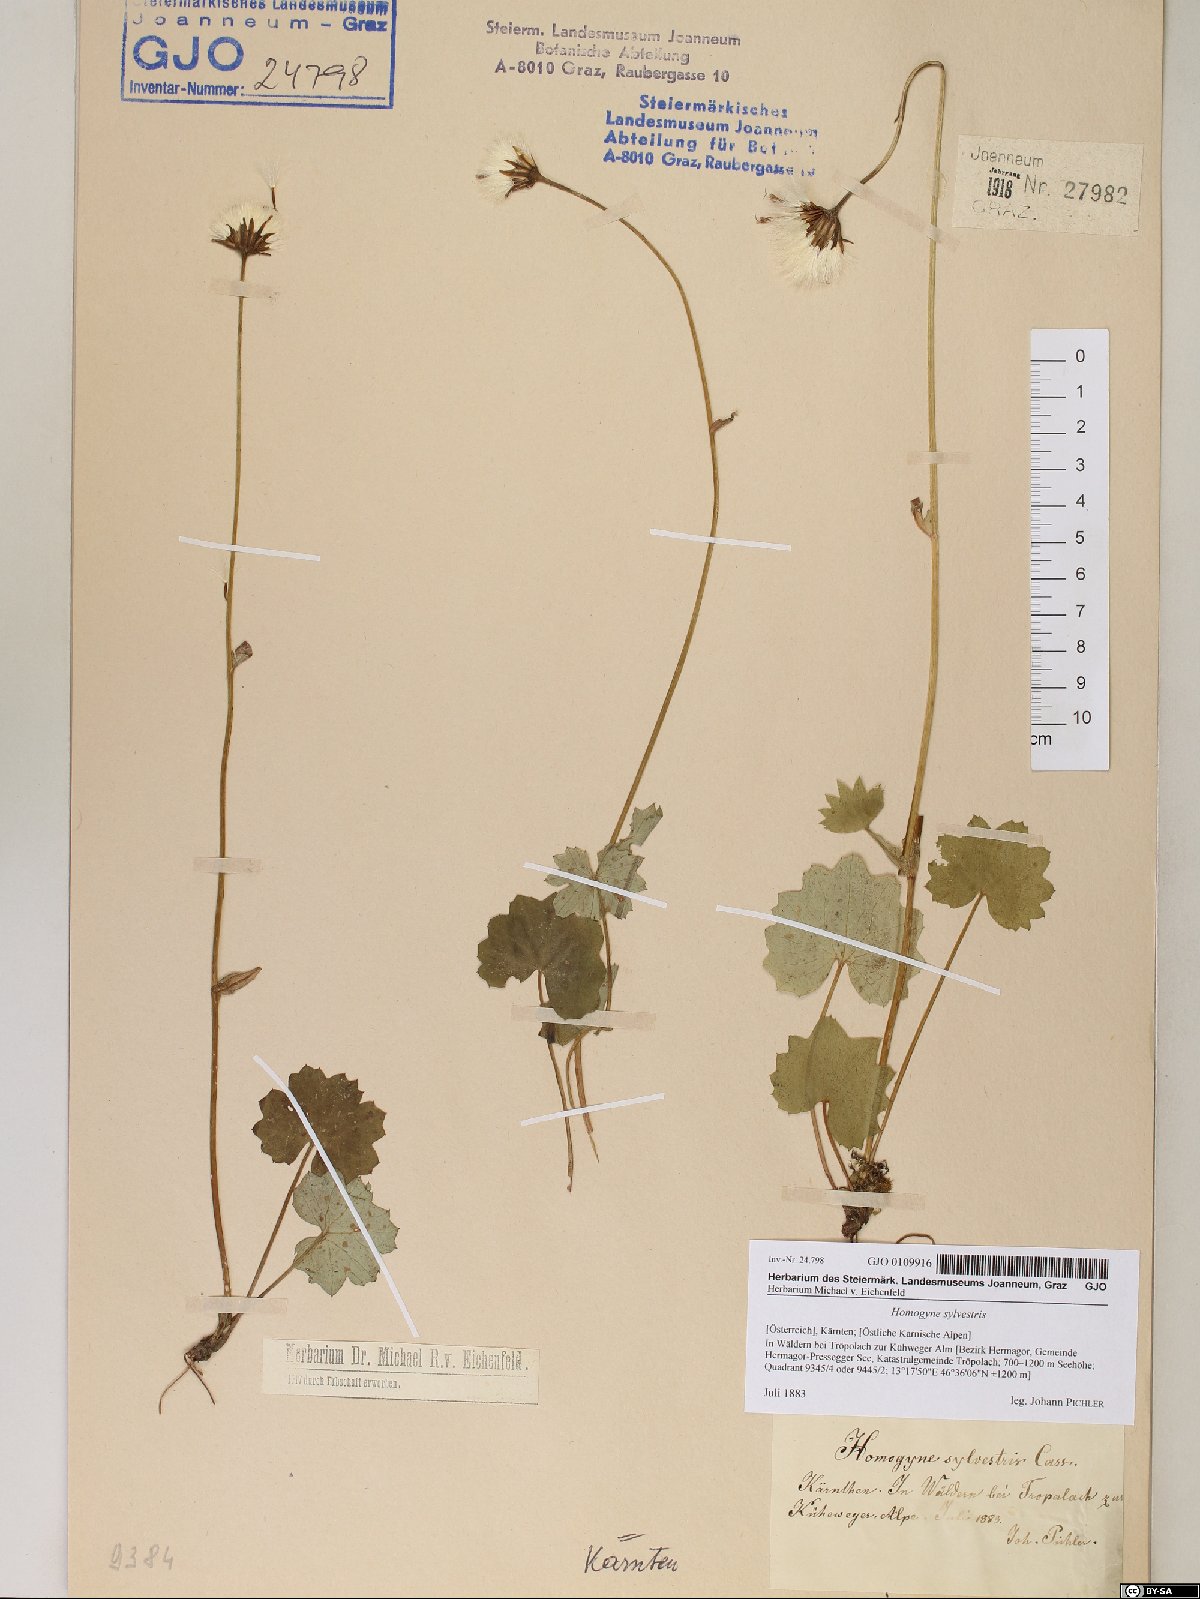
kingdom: Plantae
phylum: Tracheophyta
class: Magnoliopsida
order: Asterales
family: Asteraceae
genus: Homogyne
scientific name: Homogyne sylvestris
